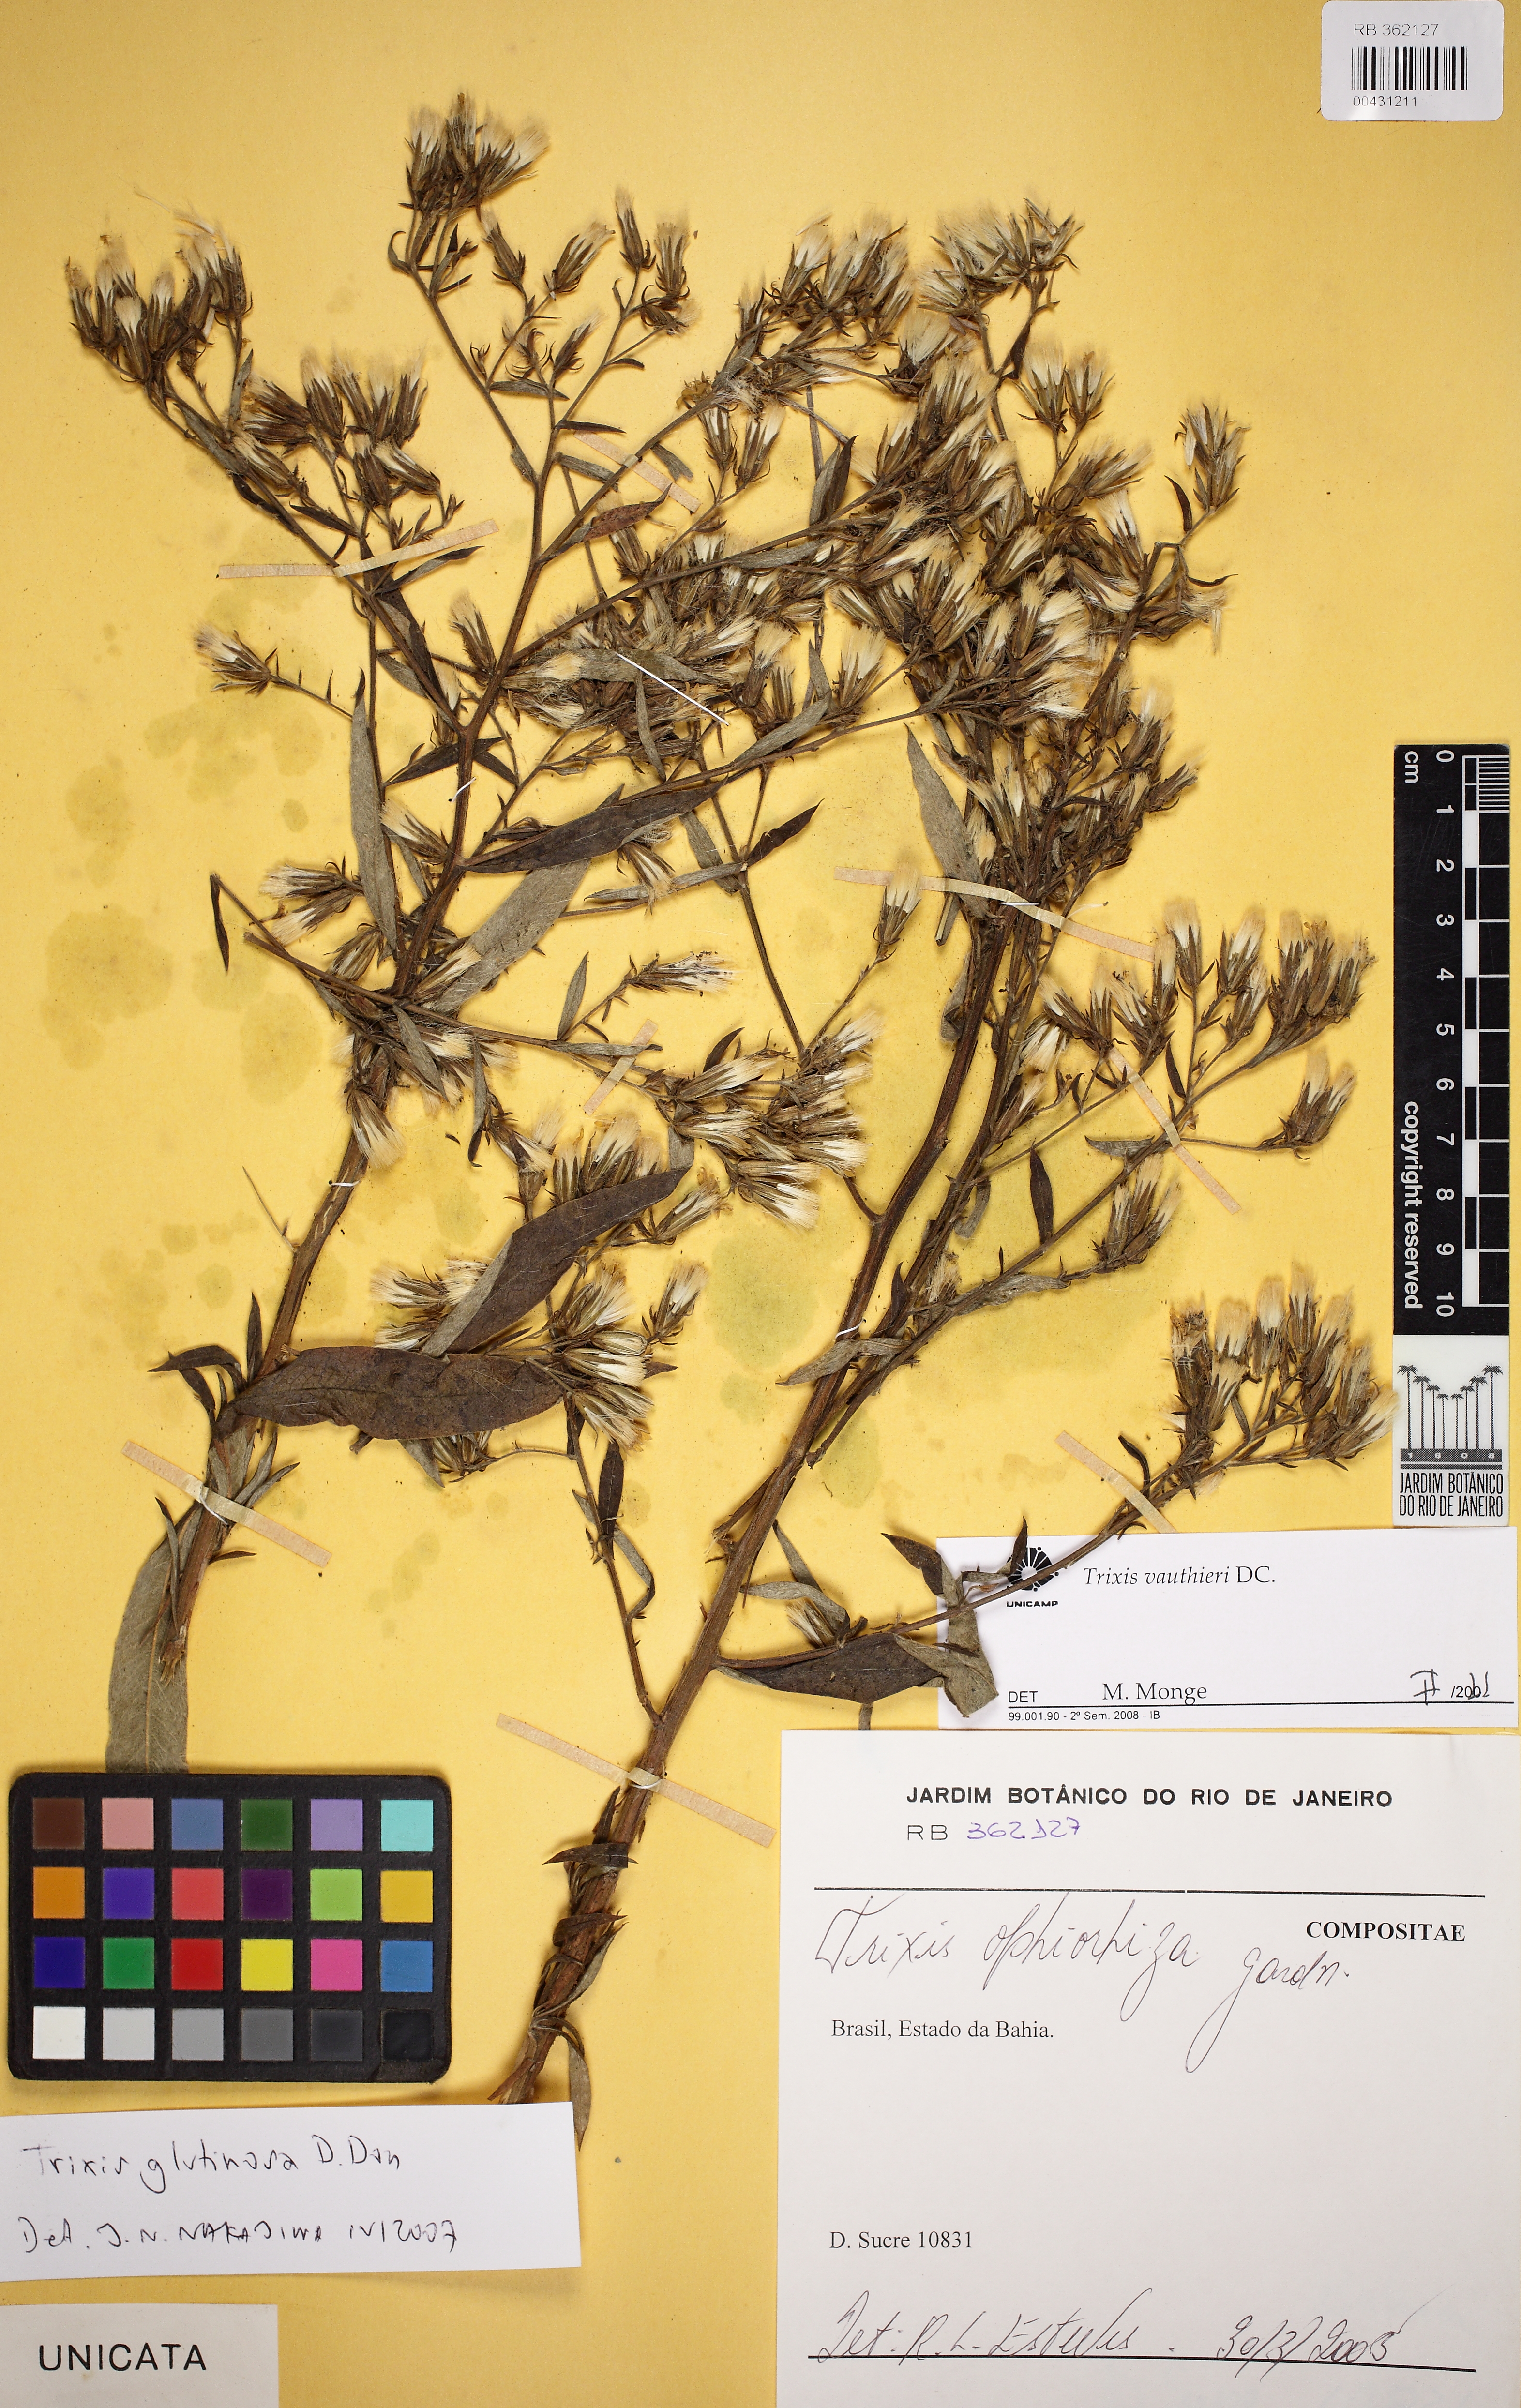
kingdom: Plantae
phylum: Tracheophyta
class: Magnoliopsida
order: Asterales
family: Asteraceae
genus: Trixis
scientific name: Trixis vauthieri
